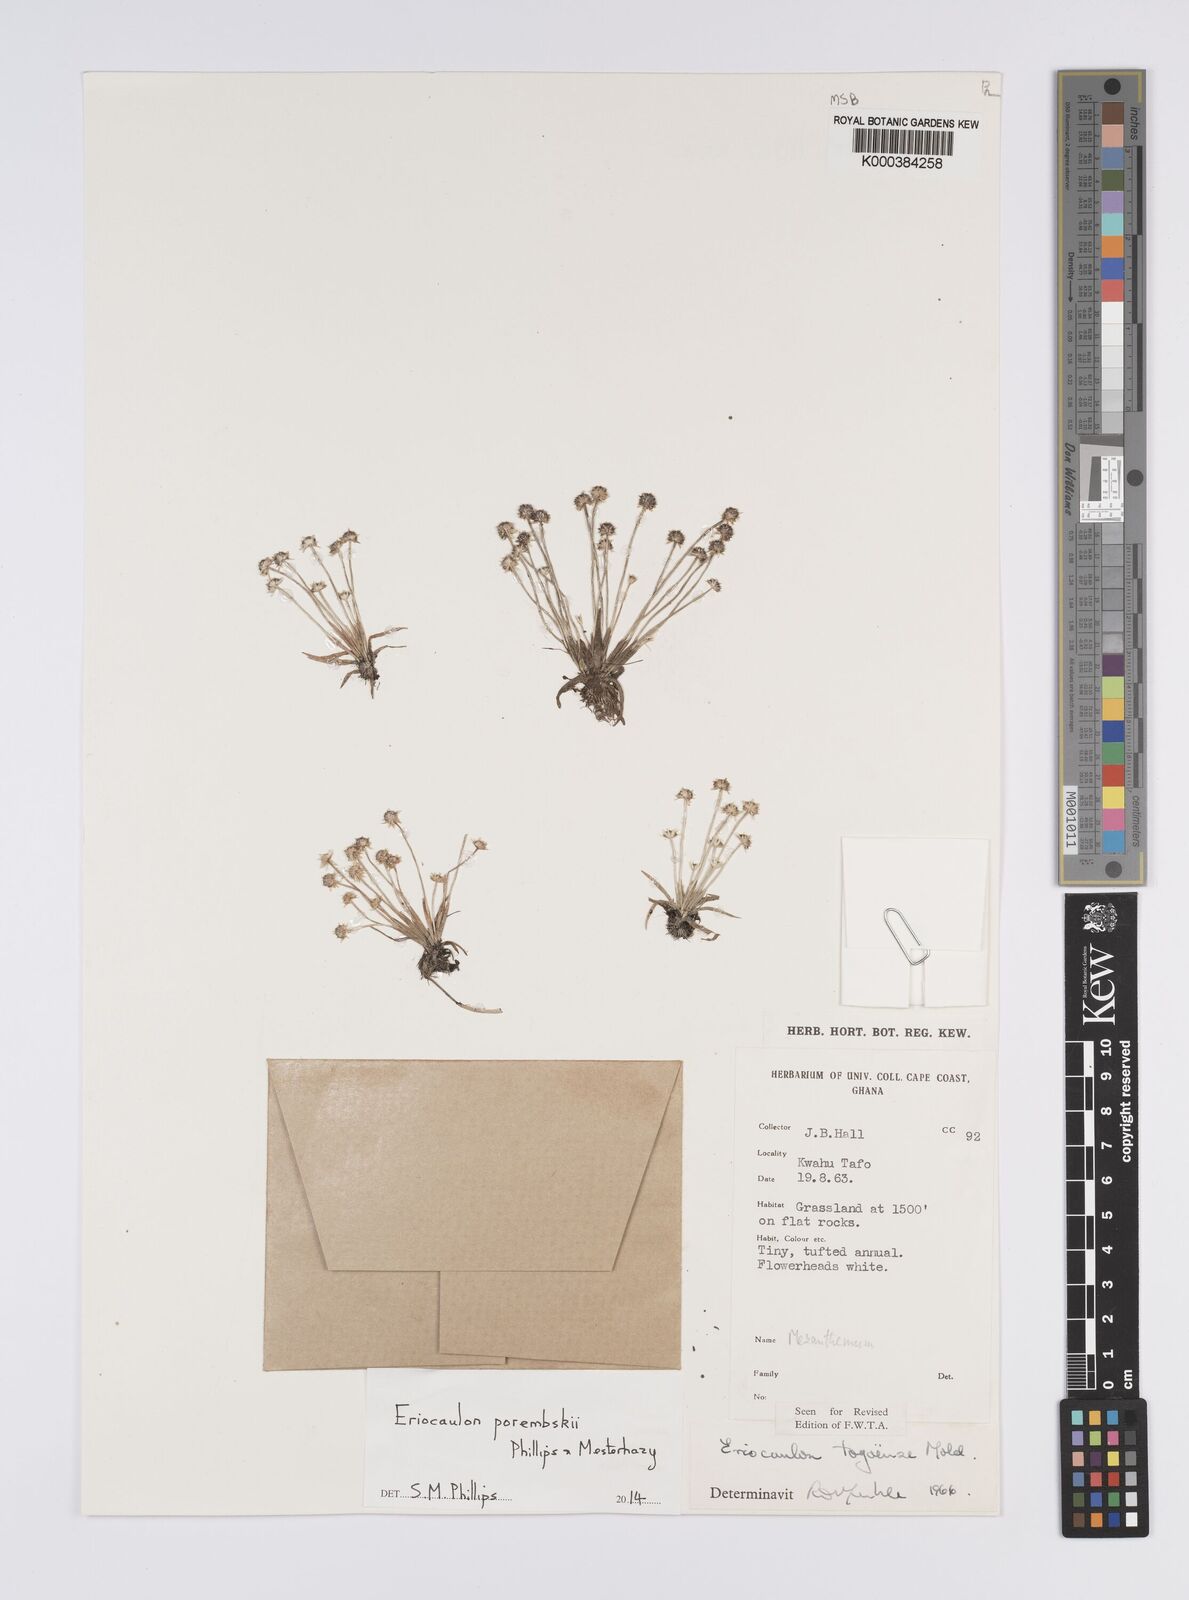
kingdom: Plantae
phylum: Tracheophyta
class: Liliopsida
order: Poales
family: Eriocaulaceae
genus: Eriocaulon
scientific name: Eriocaulon togoense
